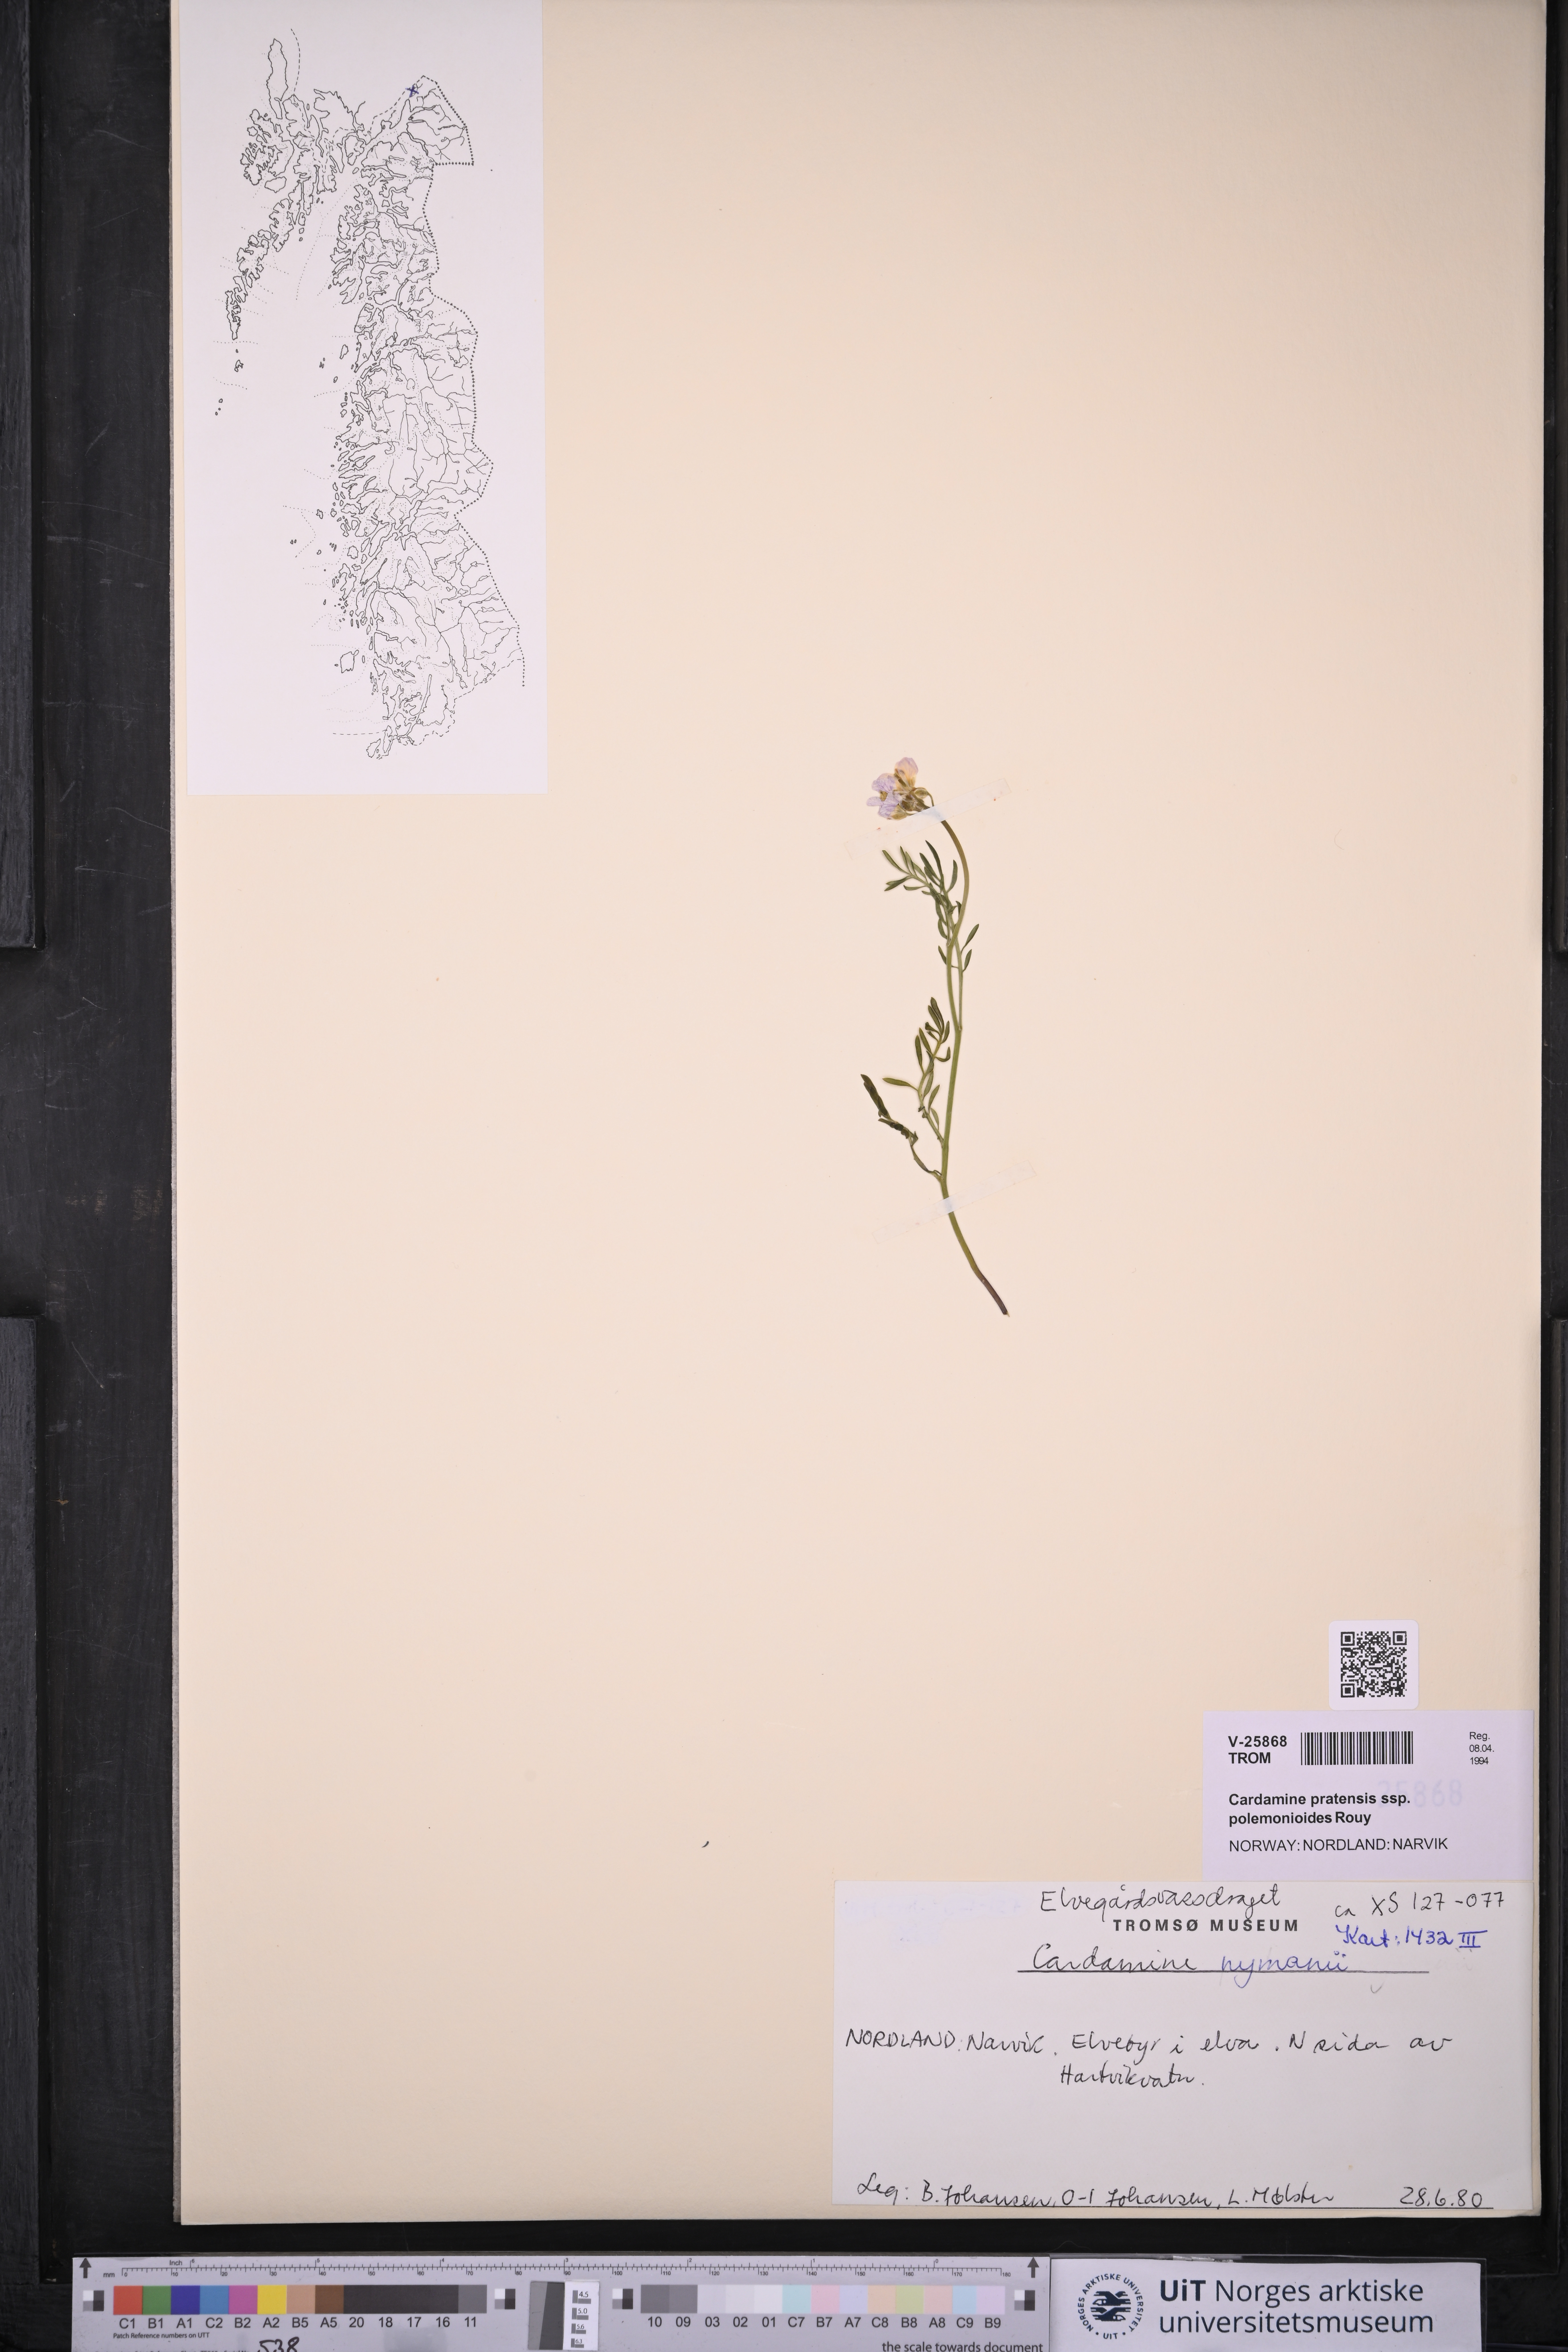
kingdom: Plantae
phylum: Tracheophyta
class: Magnoliopsida
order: Brassicales
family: Brassicaceae
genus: Cardamine
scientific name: Cardamine nymanii
